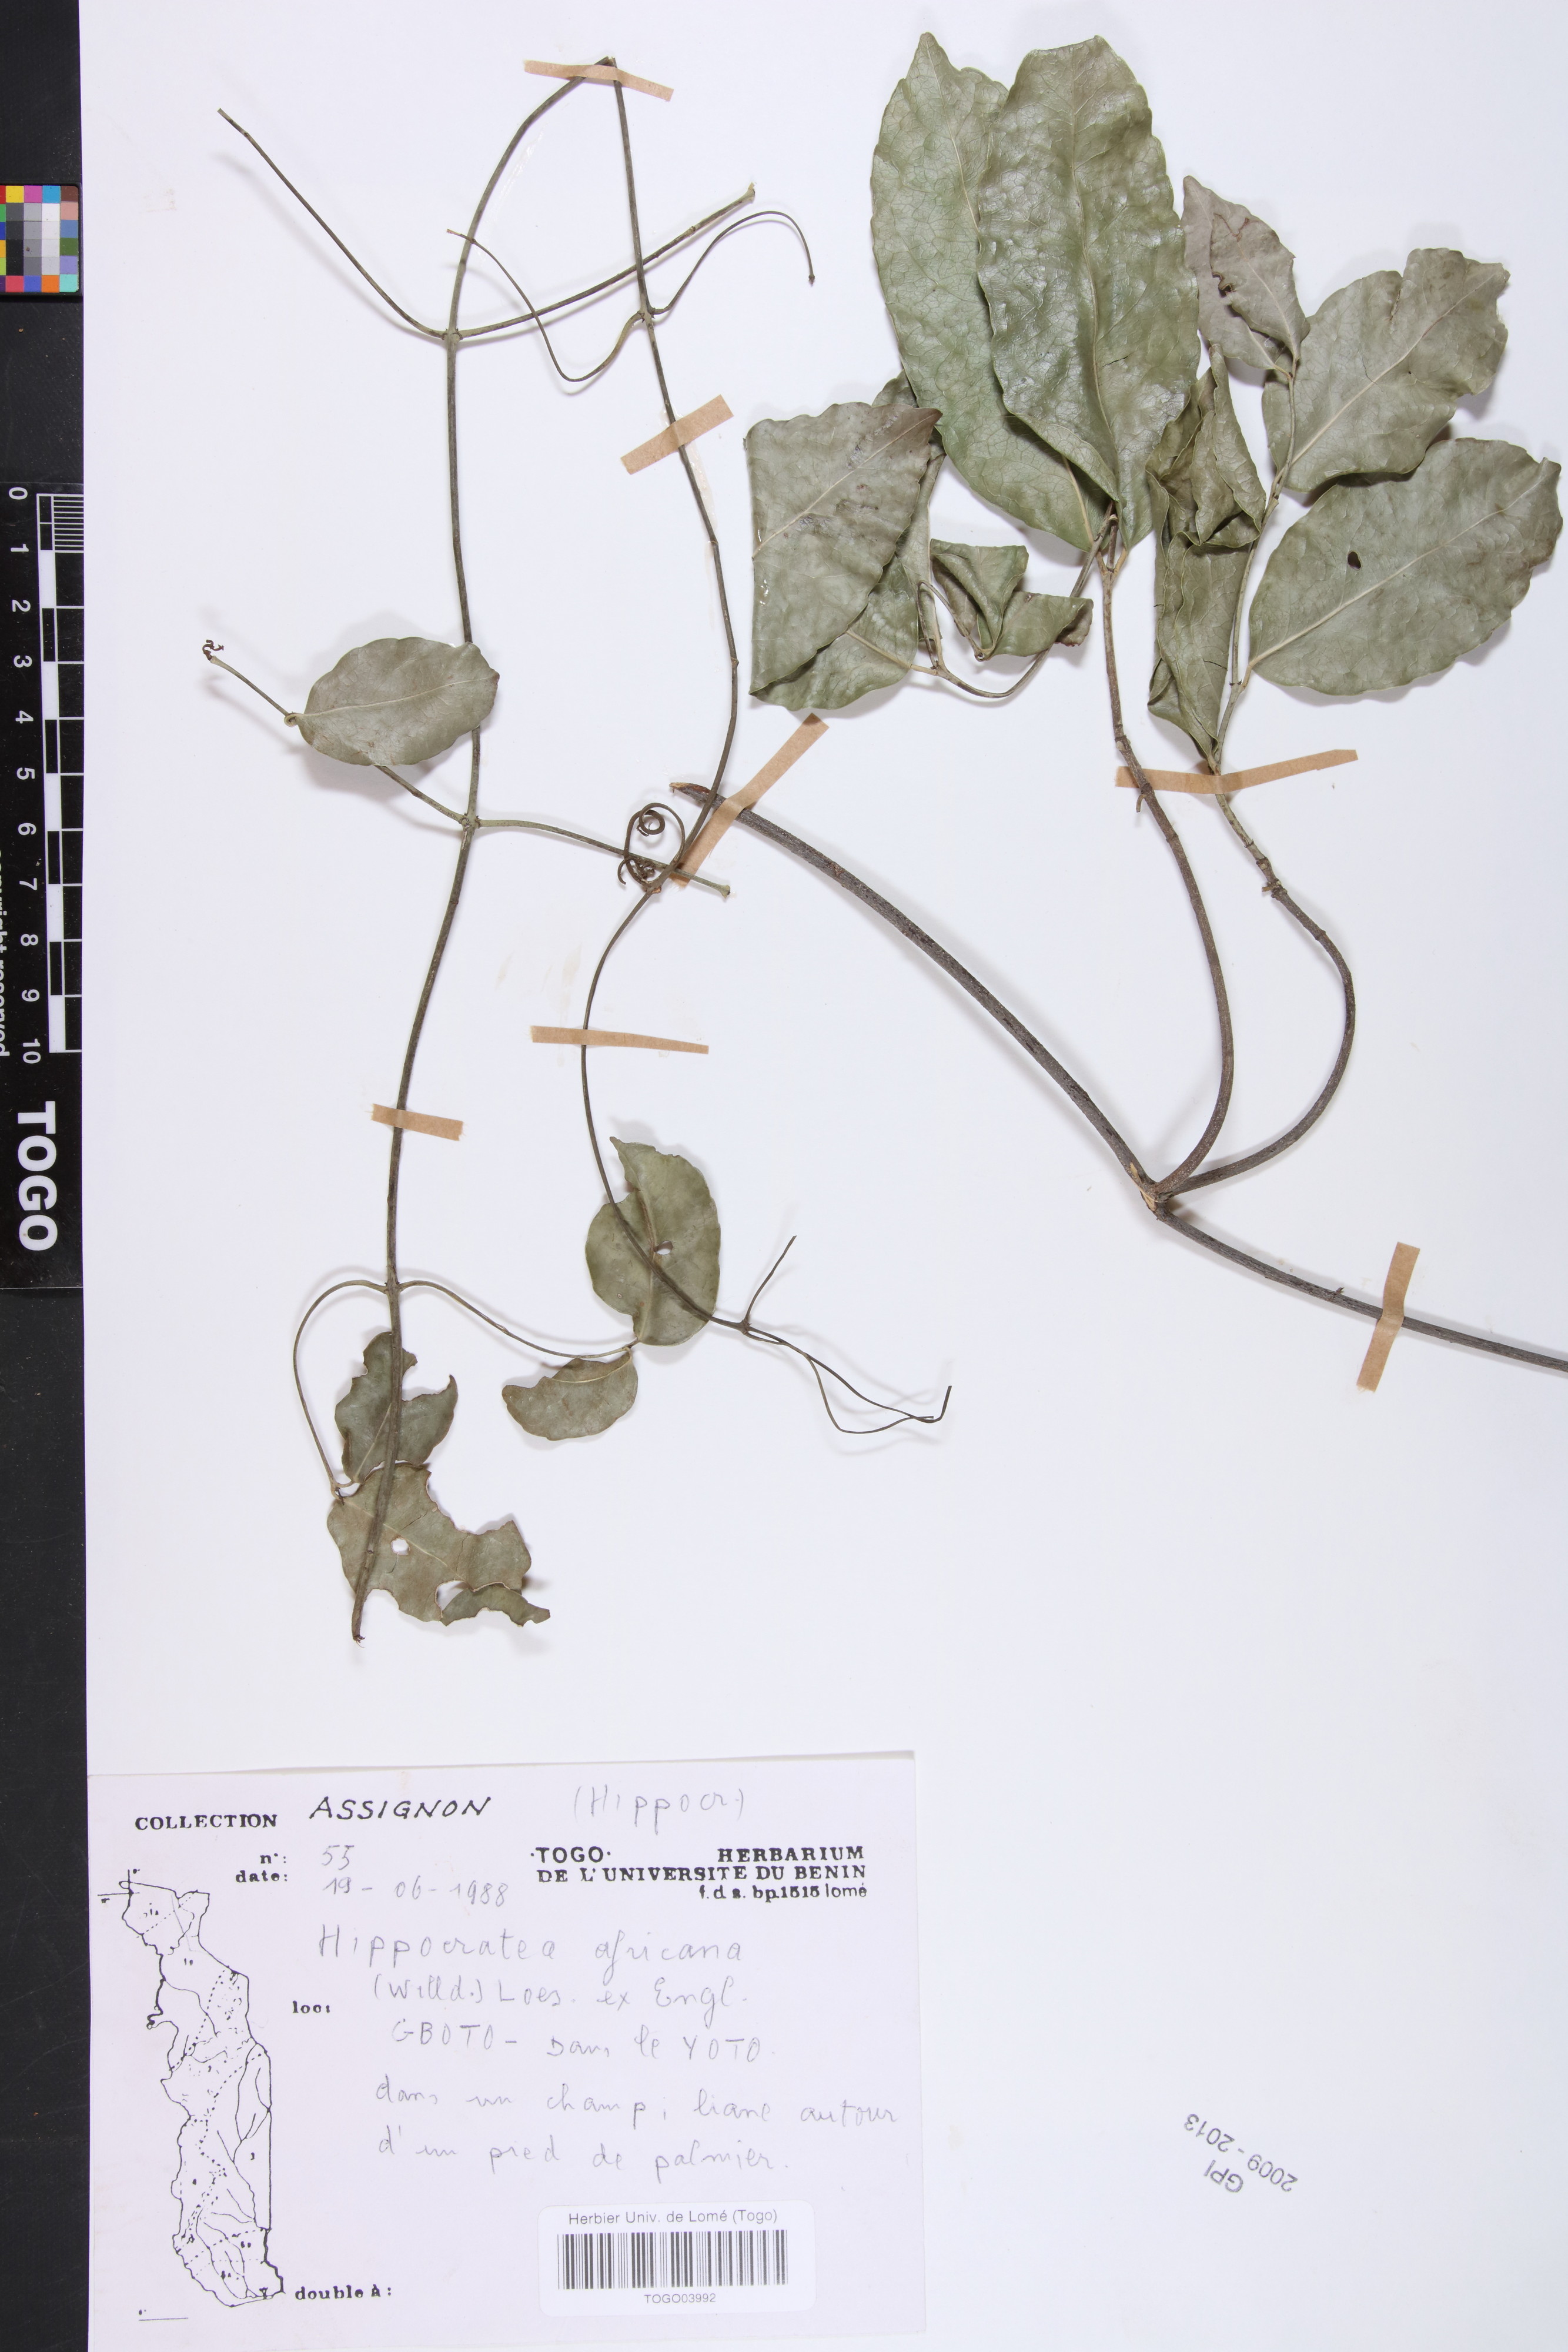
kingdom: Plantae
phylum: Tracheophyta
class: Magnoliopsida
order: Celastrales
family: Celastraceae
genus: Loeseneriella
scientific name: Loeseneriella africana
